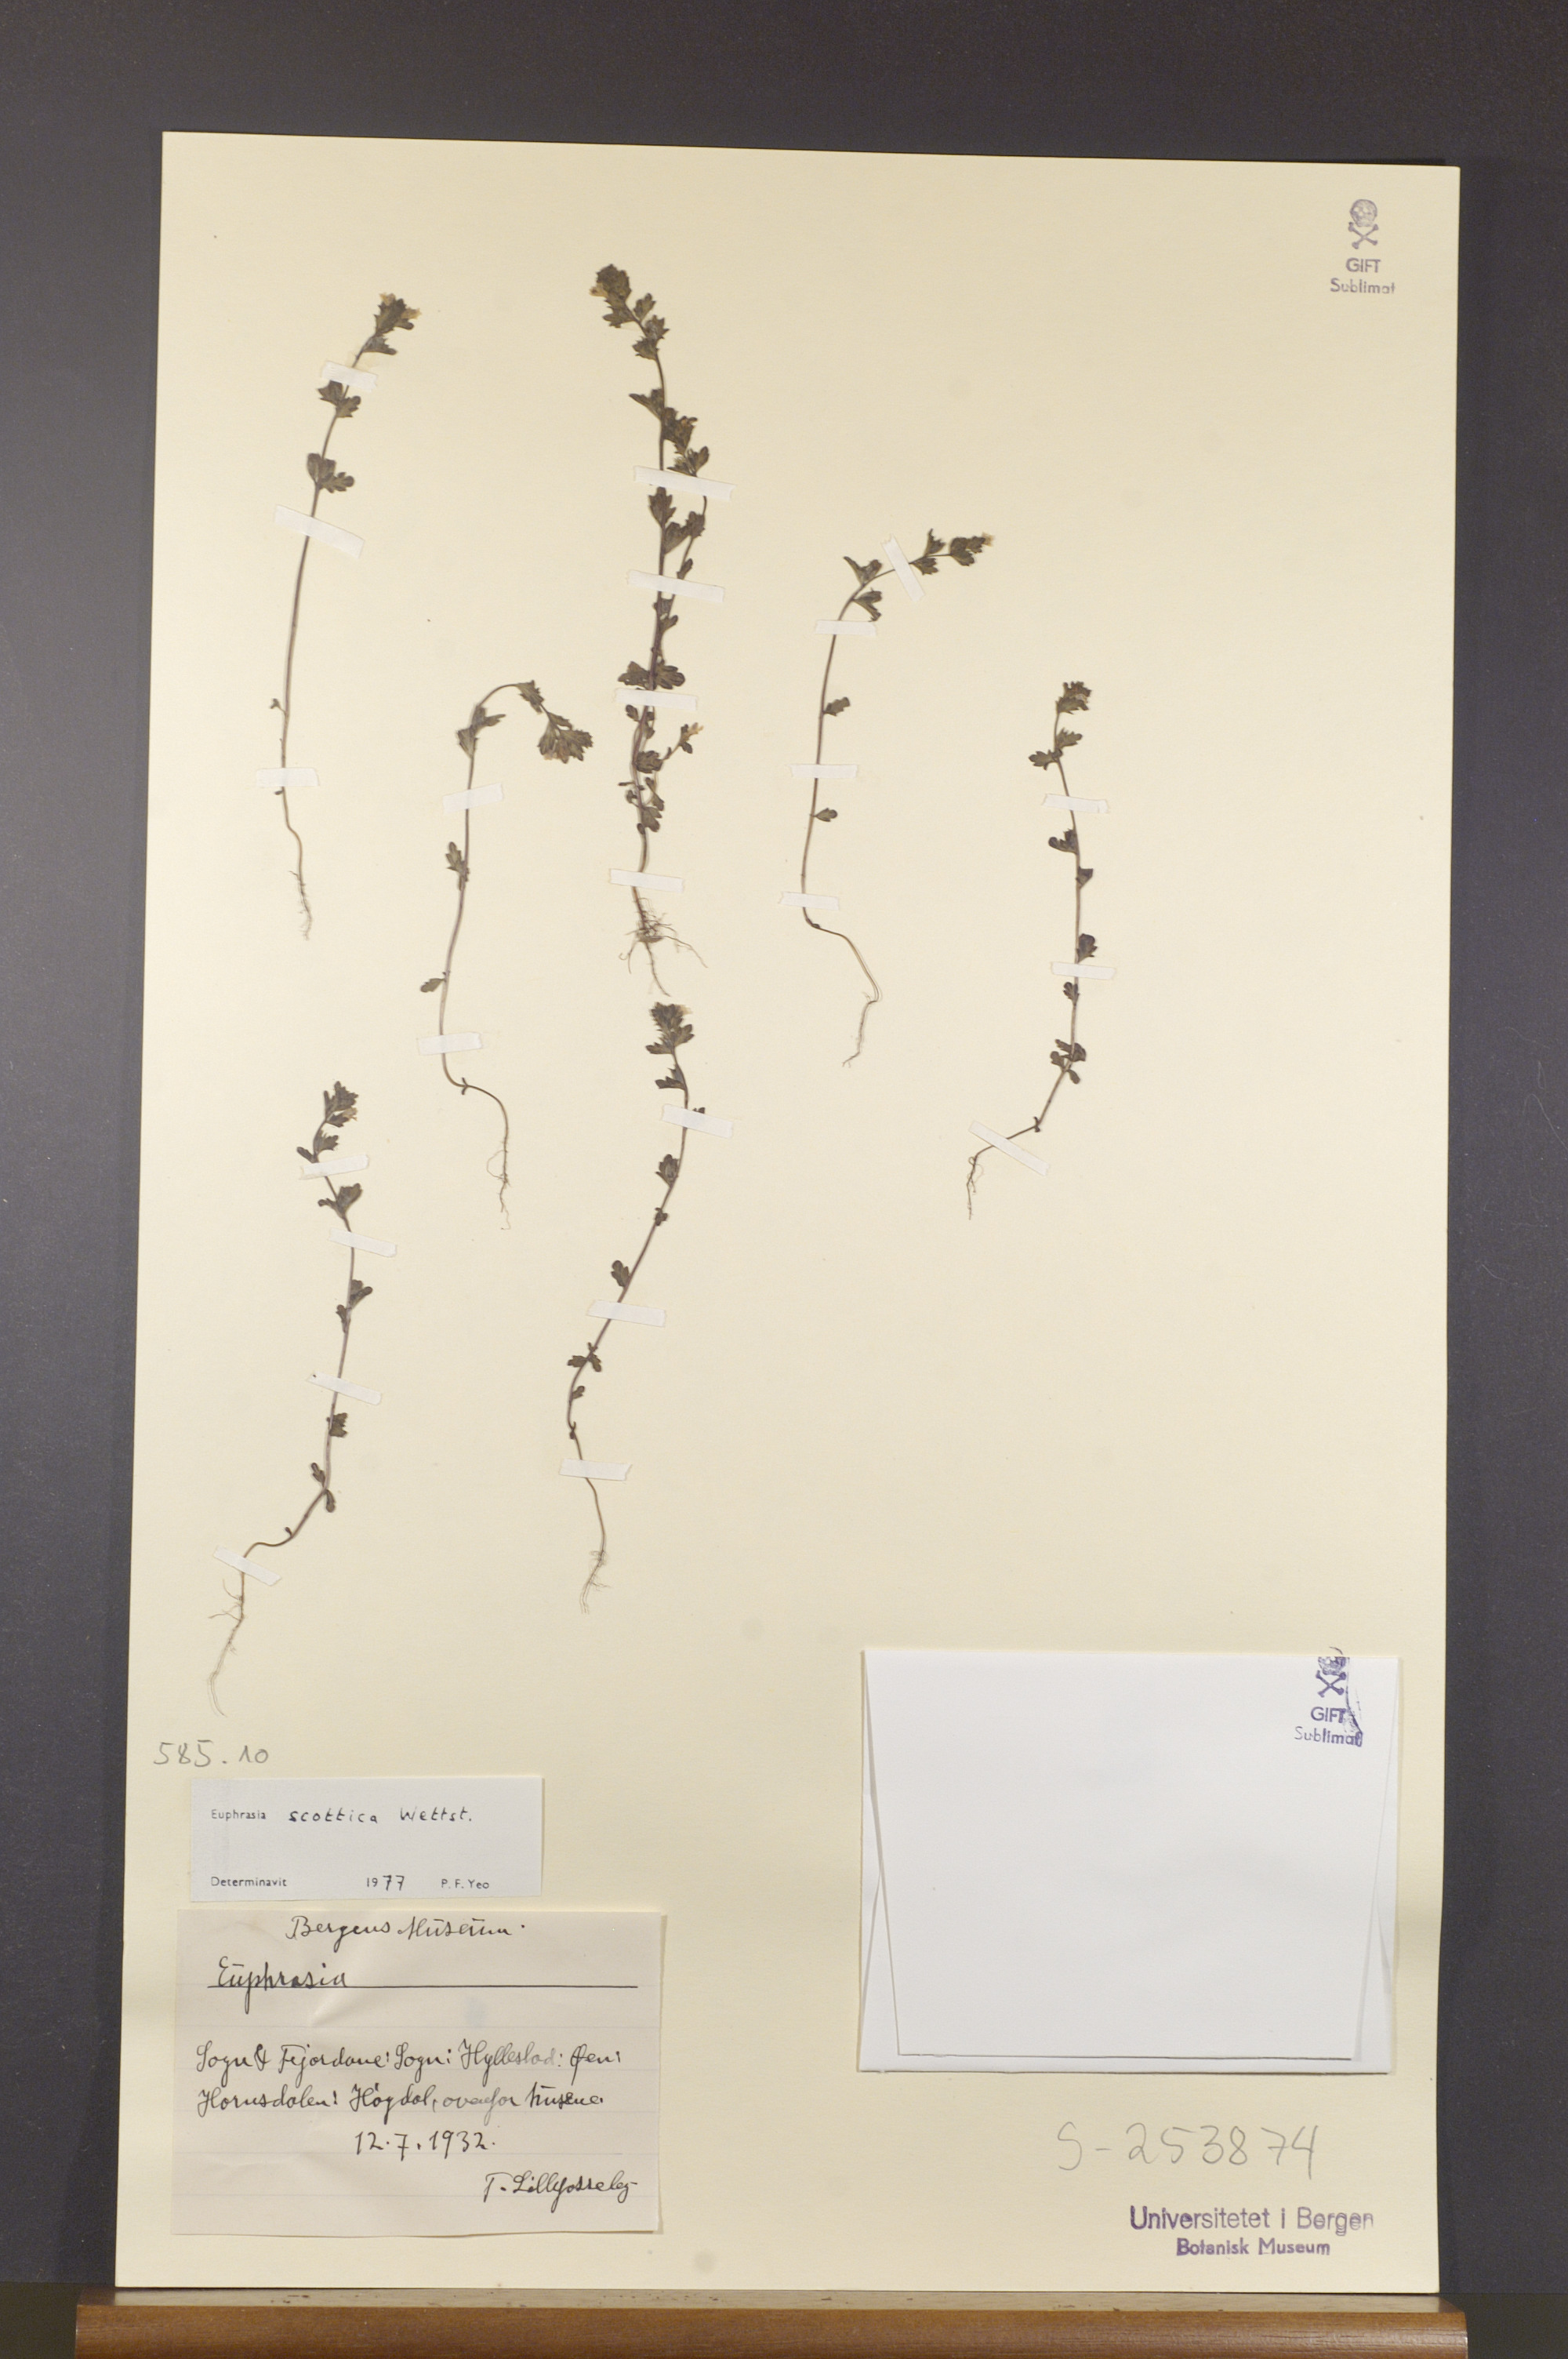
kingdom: Plantae
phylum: Tracheophyta
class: Magnoliopsida
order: Lamiales
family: Orobanchaceae
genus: Euphrasia
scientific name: Euphrasia scottica
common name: Slender scottish eyebright
